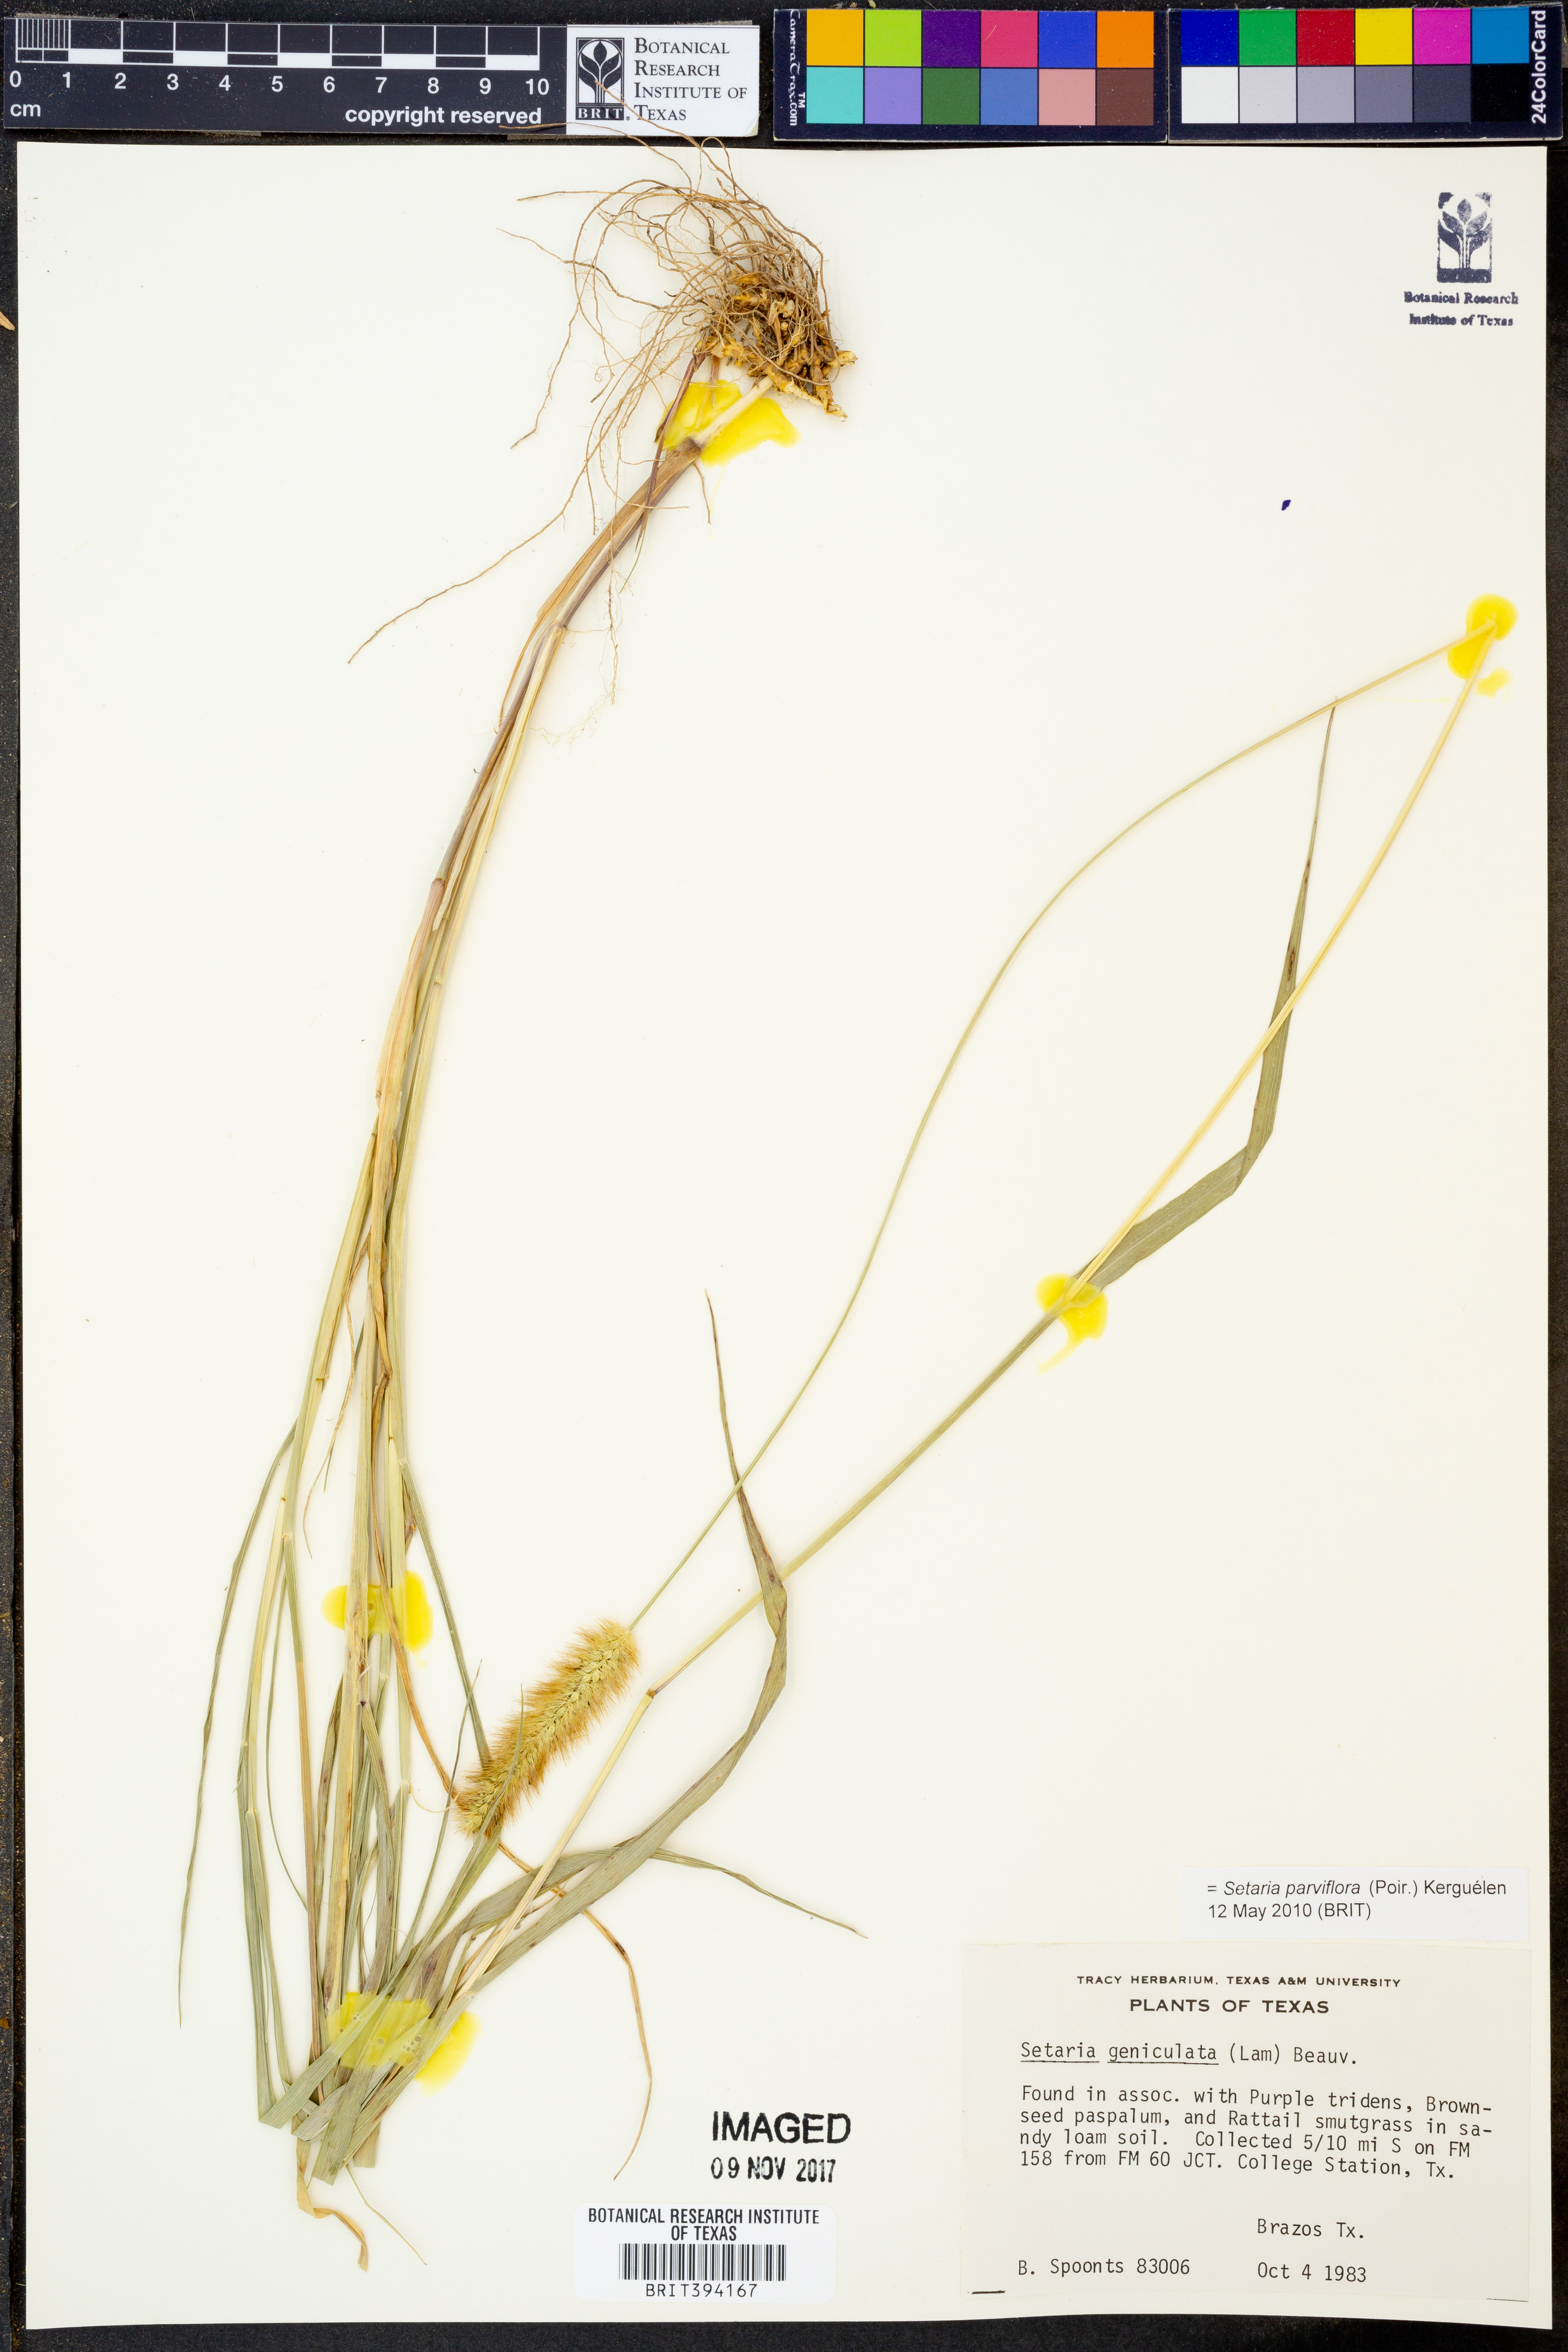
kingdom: Plantae
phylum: Tracheophyta
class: Liliopsida
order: Poales
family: Poaceae
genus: Setaria
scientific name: Setaria parviflora
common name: Knotroot bristle-grass
